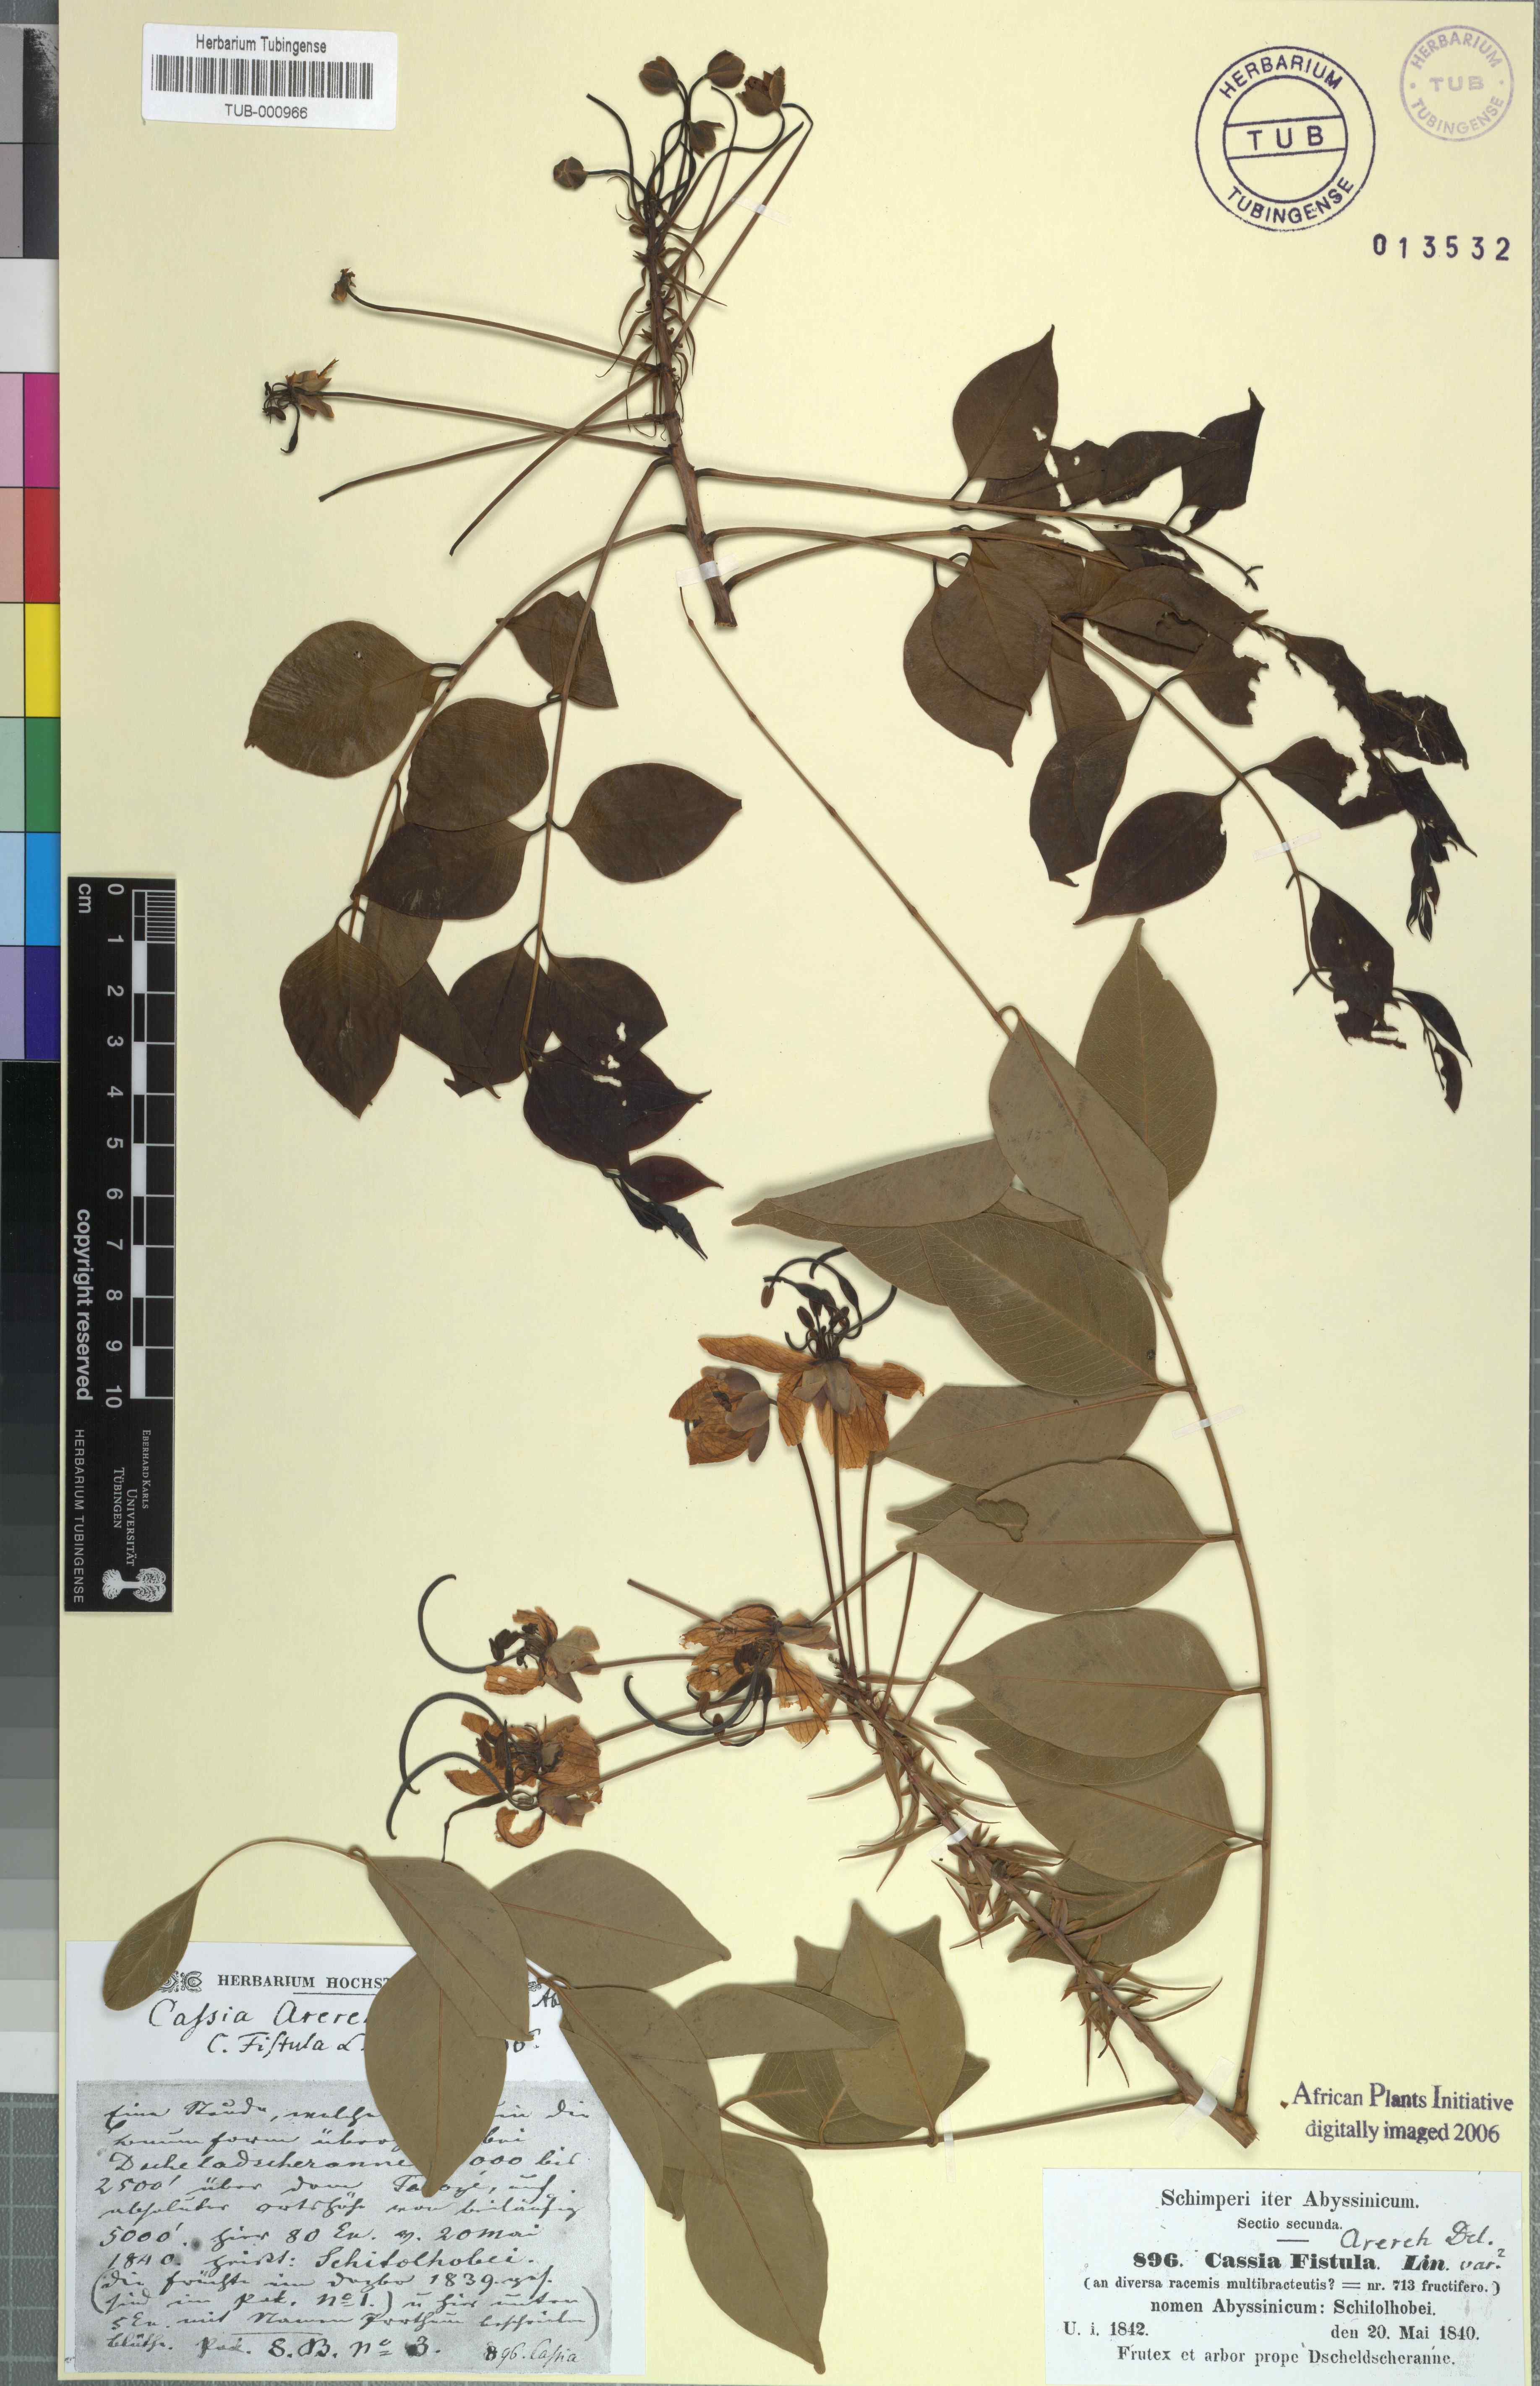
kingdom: Plantae
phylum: Tracheophyta
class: Magnoliopsida
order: Fabales
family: Fabaceae
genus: Cassia
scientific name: Cassia fistula
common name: Golden shower
